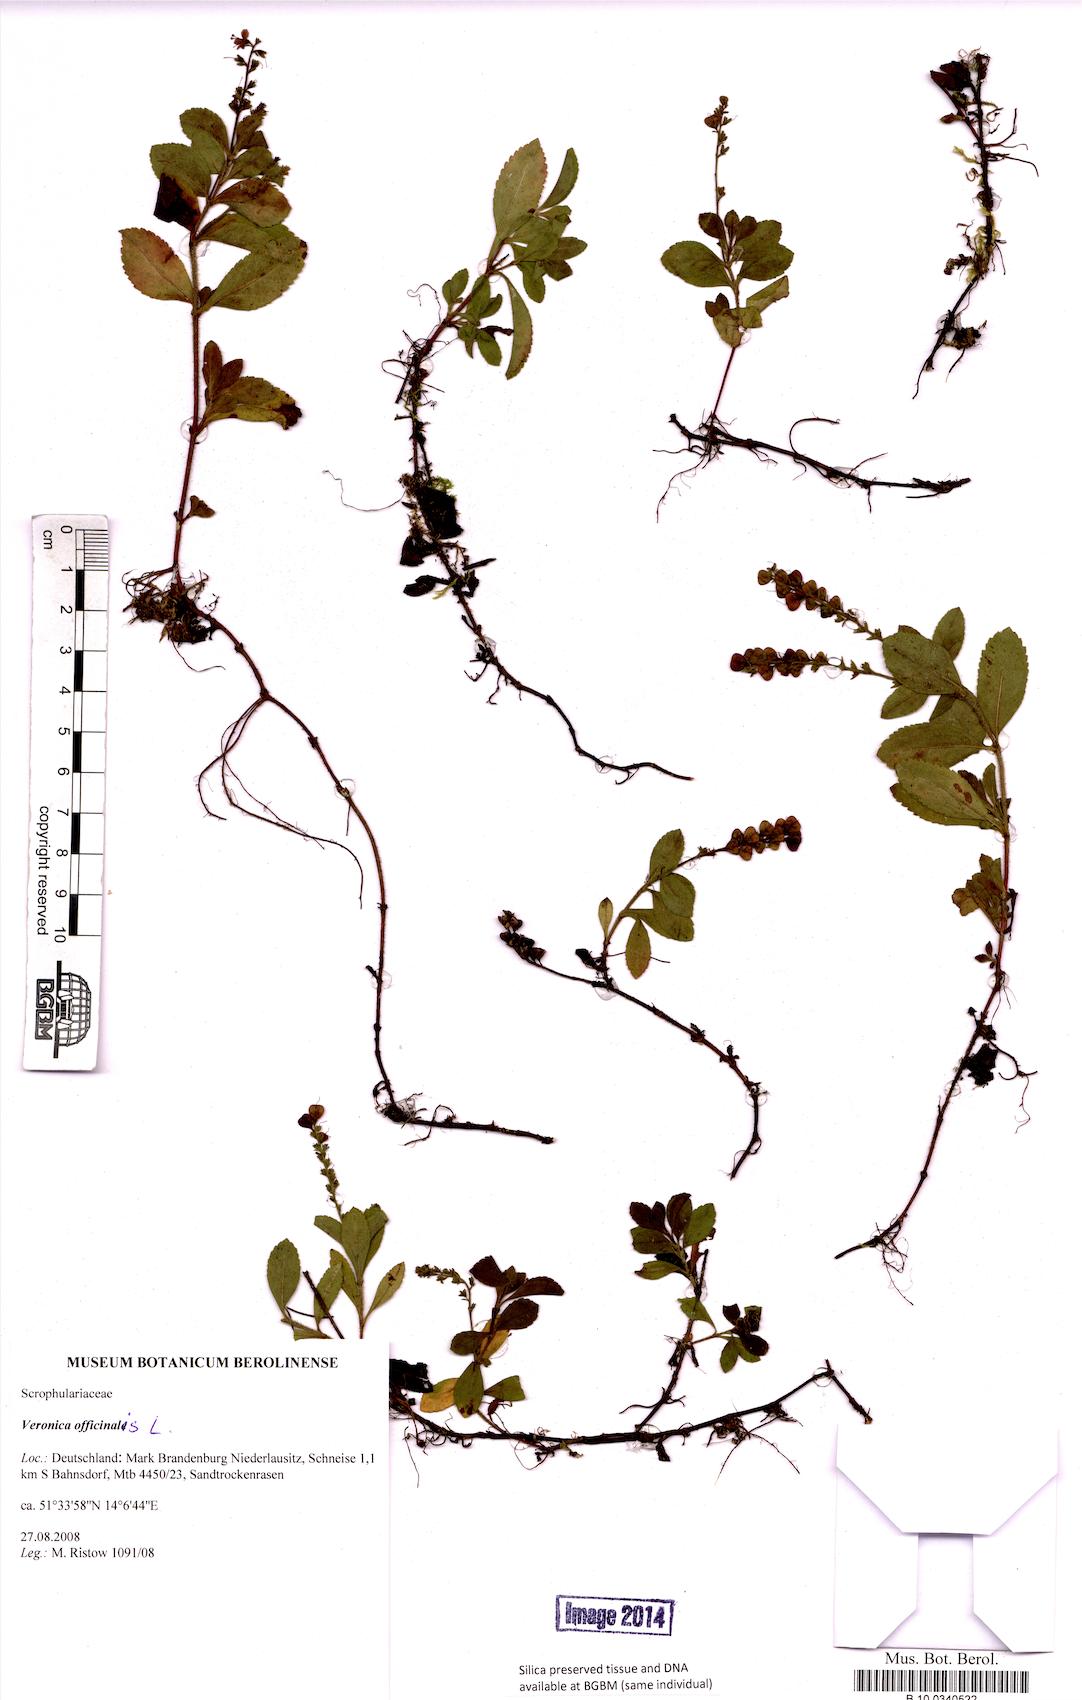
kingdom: Plantae
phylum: Tracheophyta
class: Magnoliopsida
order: Lamiales
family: Plantaginaceae
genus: Veronica
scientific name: Veronica officinalis
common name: Common speedwell
